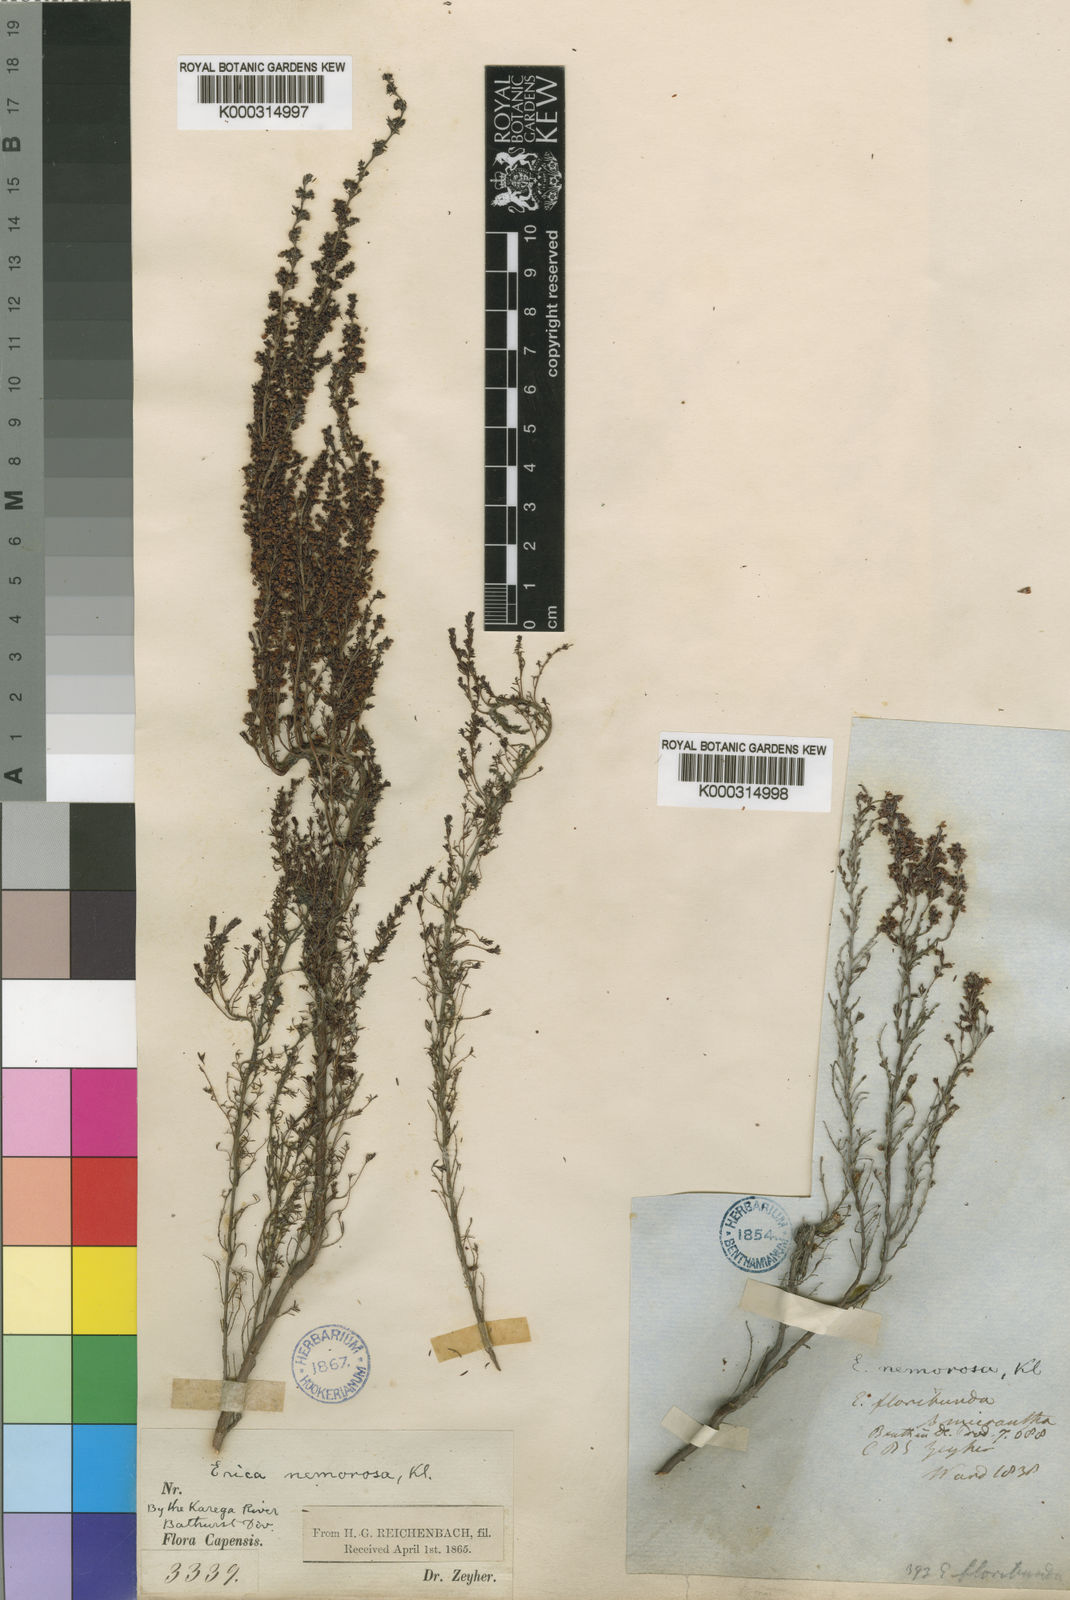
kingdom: Plantae
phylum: Tracheophyta
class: Magnoliopsida
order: Ericales
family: Ericaceae
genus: Erica
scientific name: Erica nemorosa
